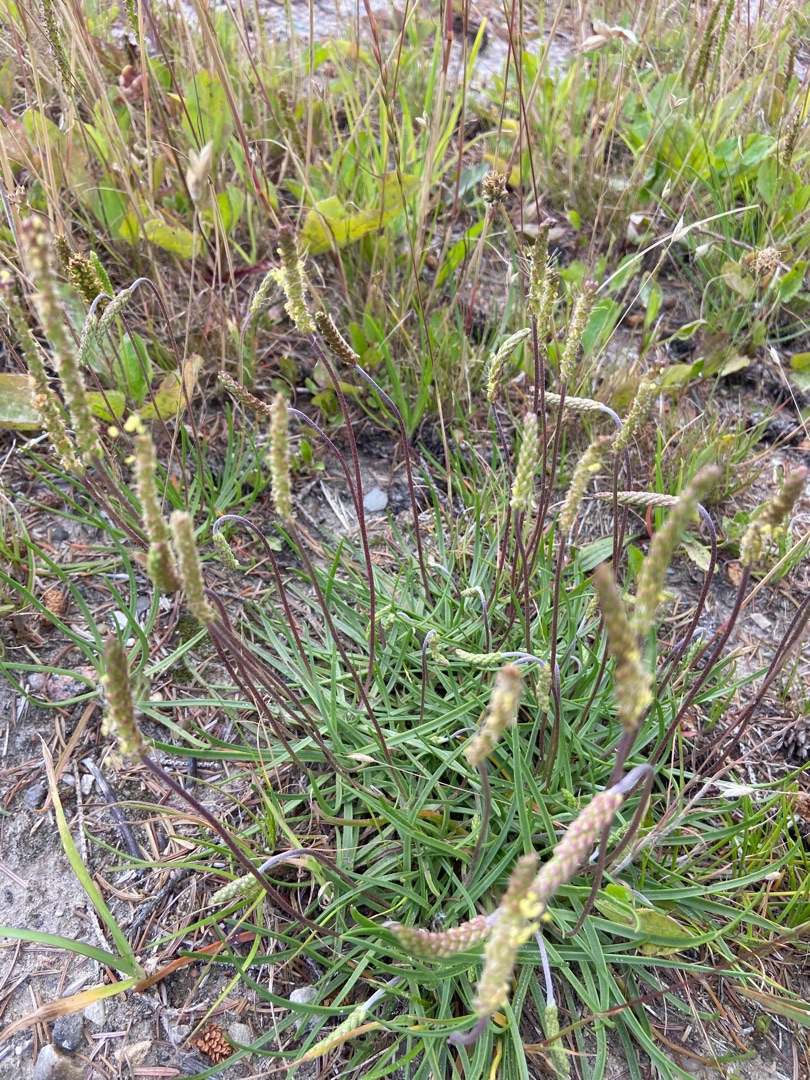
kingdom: Plantae
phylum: Tracheophyta
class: Magnoliopsida
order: Lamiales
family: Plantaginaceae
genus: Plantago
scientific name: Plantago maritima
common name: Strand-vejbred
